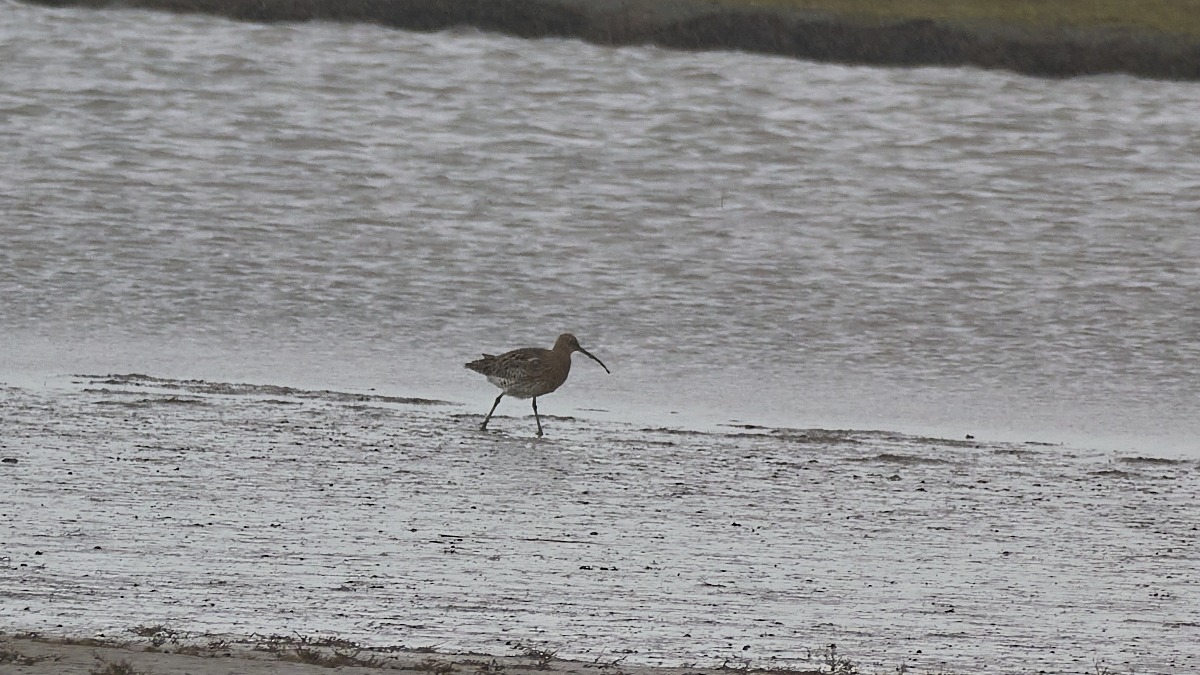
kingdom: Animalia
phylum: Chordata
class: Aves
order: Charadriiformes
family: Scolopacidae
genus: Numenius
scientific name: Numenius arquata
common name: Storspove
